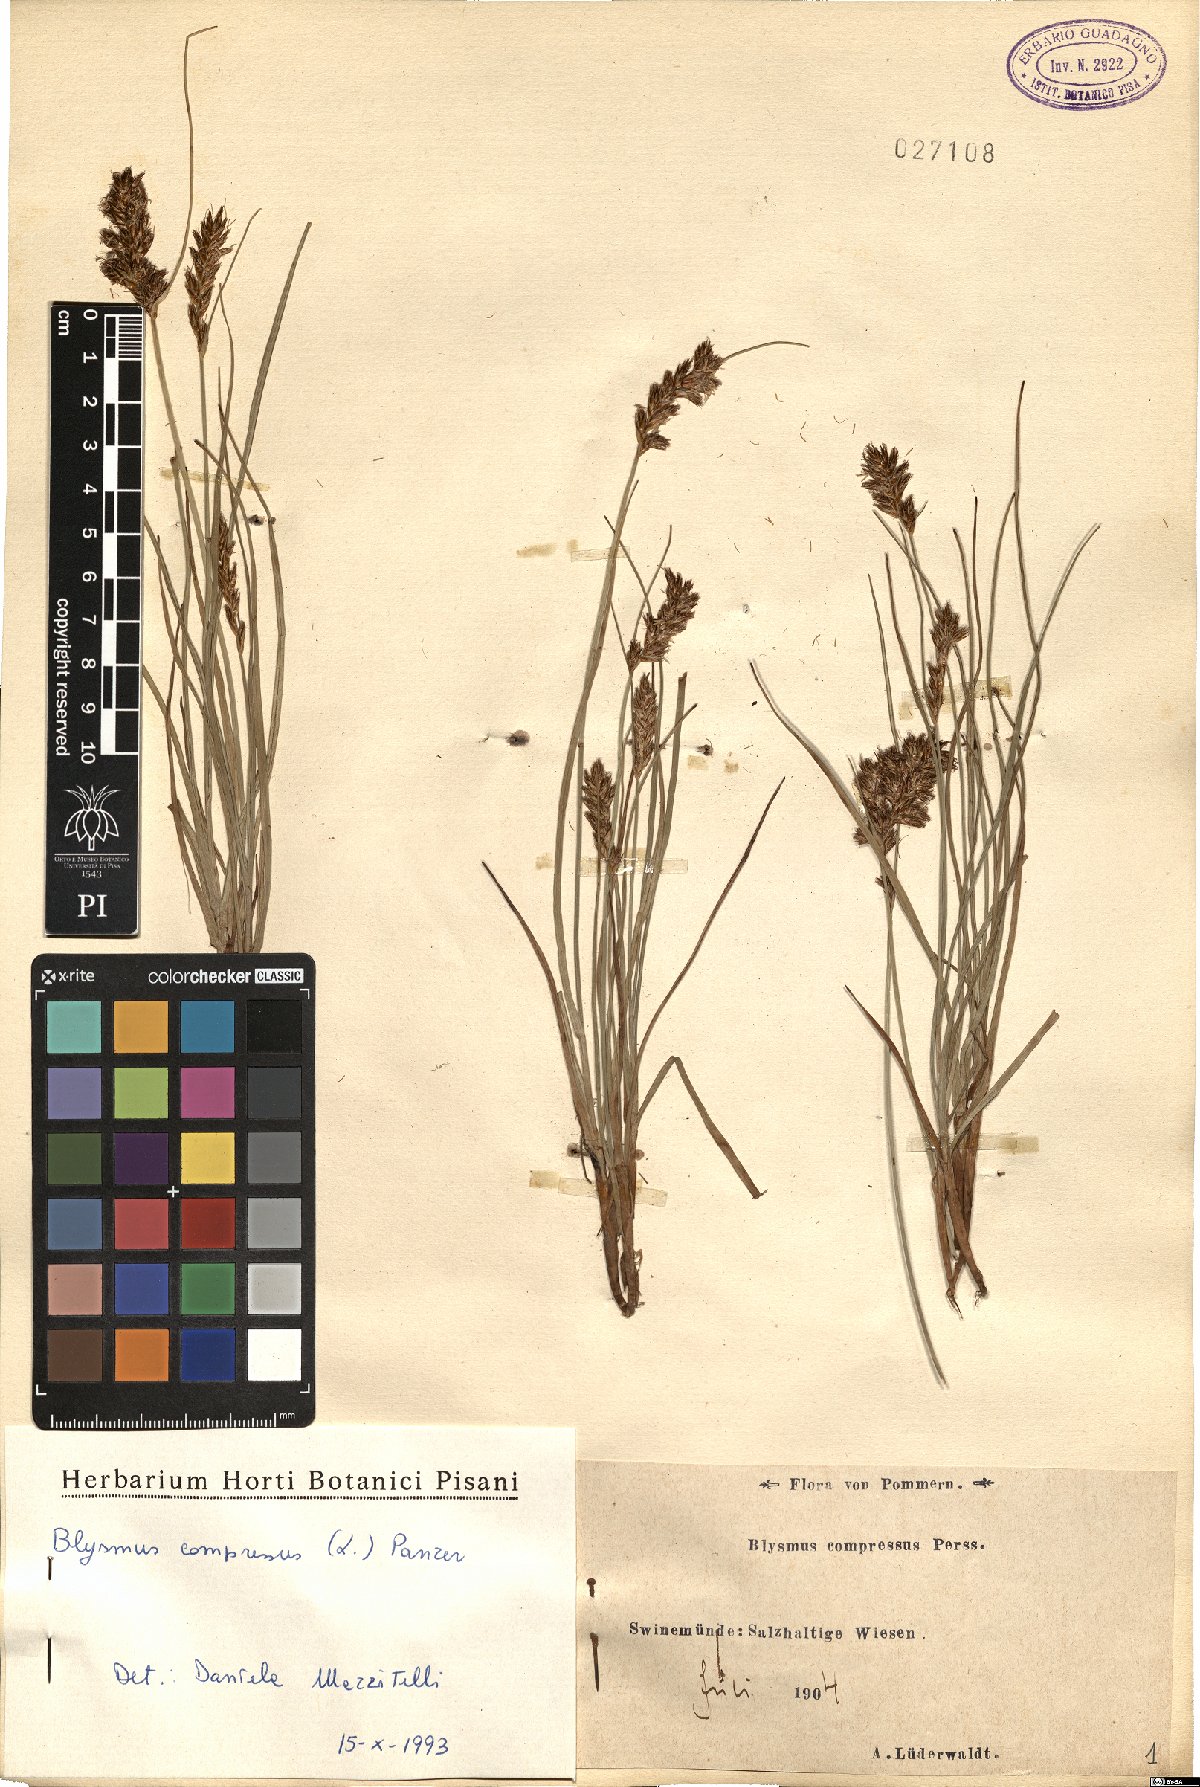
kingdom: Plantae
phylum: Tracheophyta
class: Liliopsida
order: Poales
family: Cyperaceae
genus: Blysmus
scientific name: Blysmus compressus
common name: Flat-sedge
